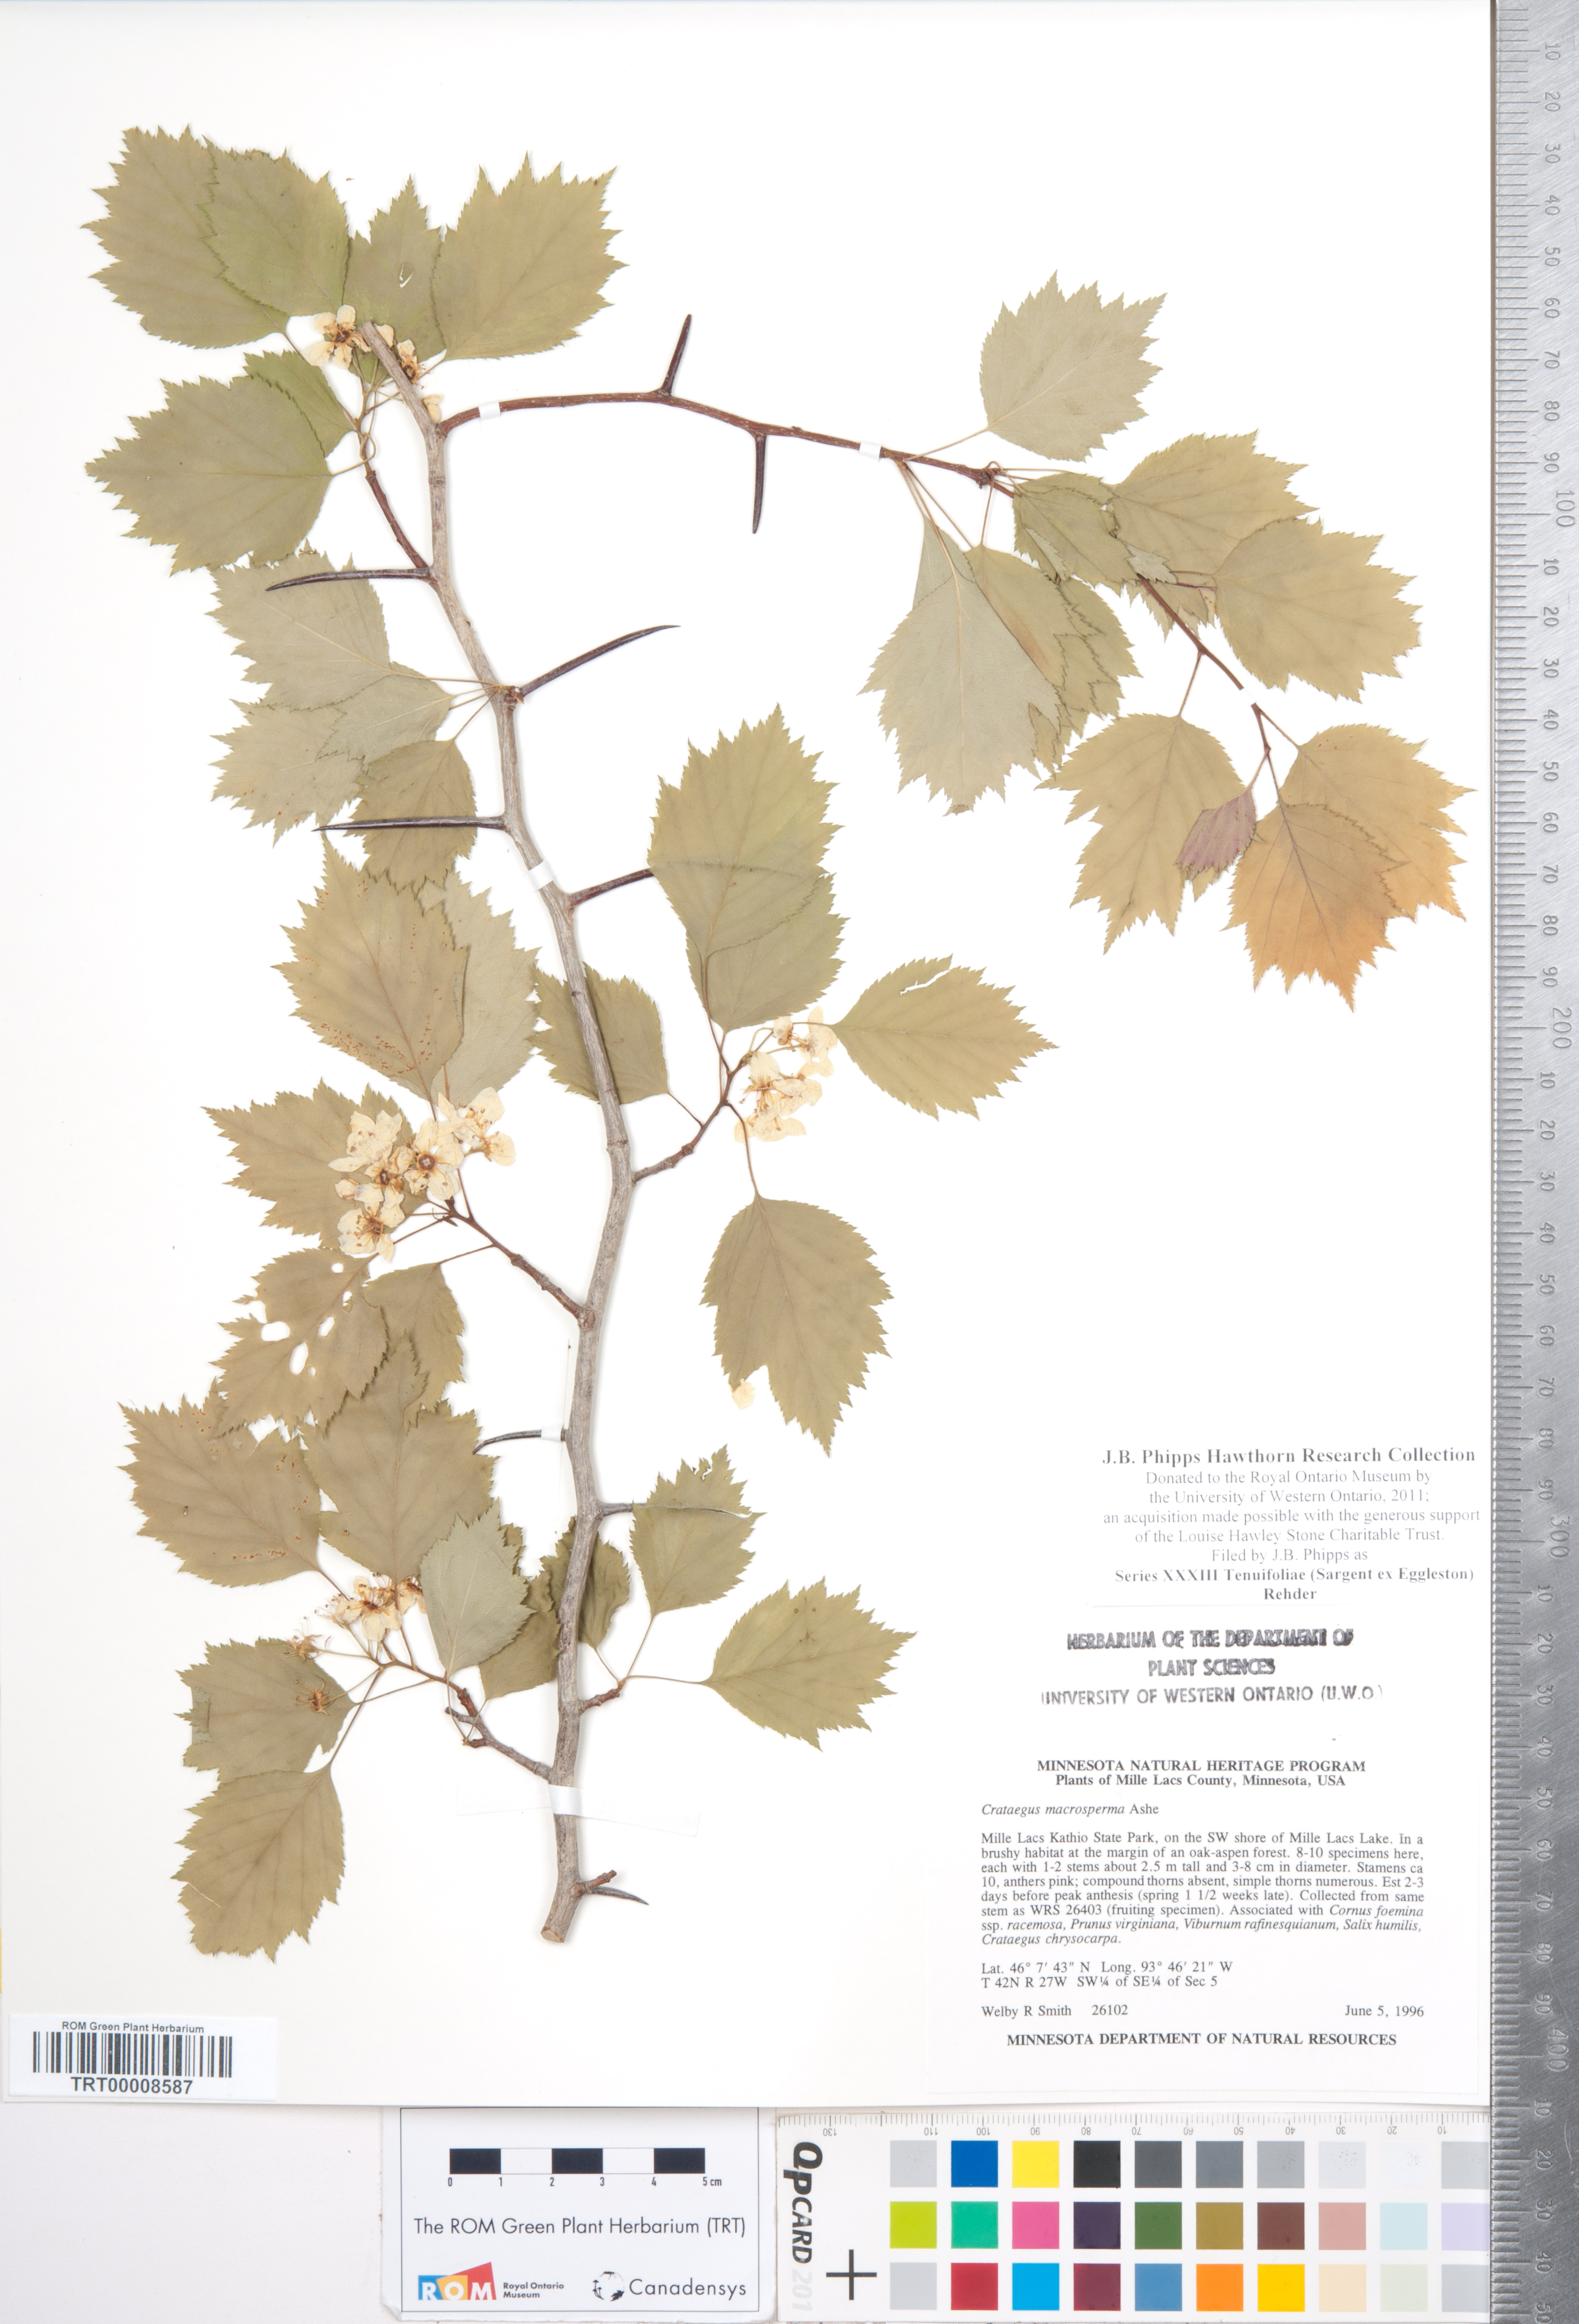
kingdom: Plantae
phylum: Tracheophyta
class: Magnoliopsida
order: Rosales
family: Rosaceae
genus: Crataegus
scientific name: Crataegus
